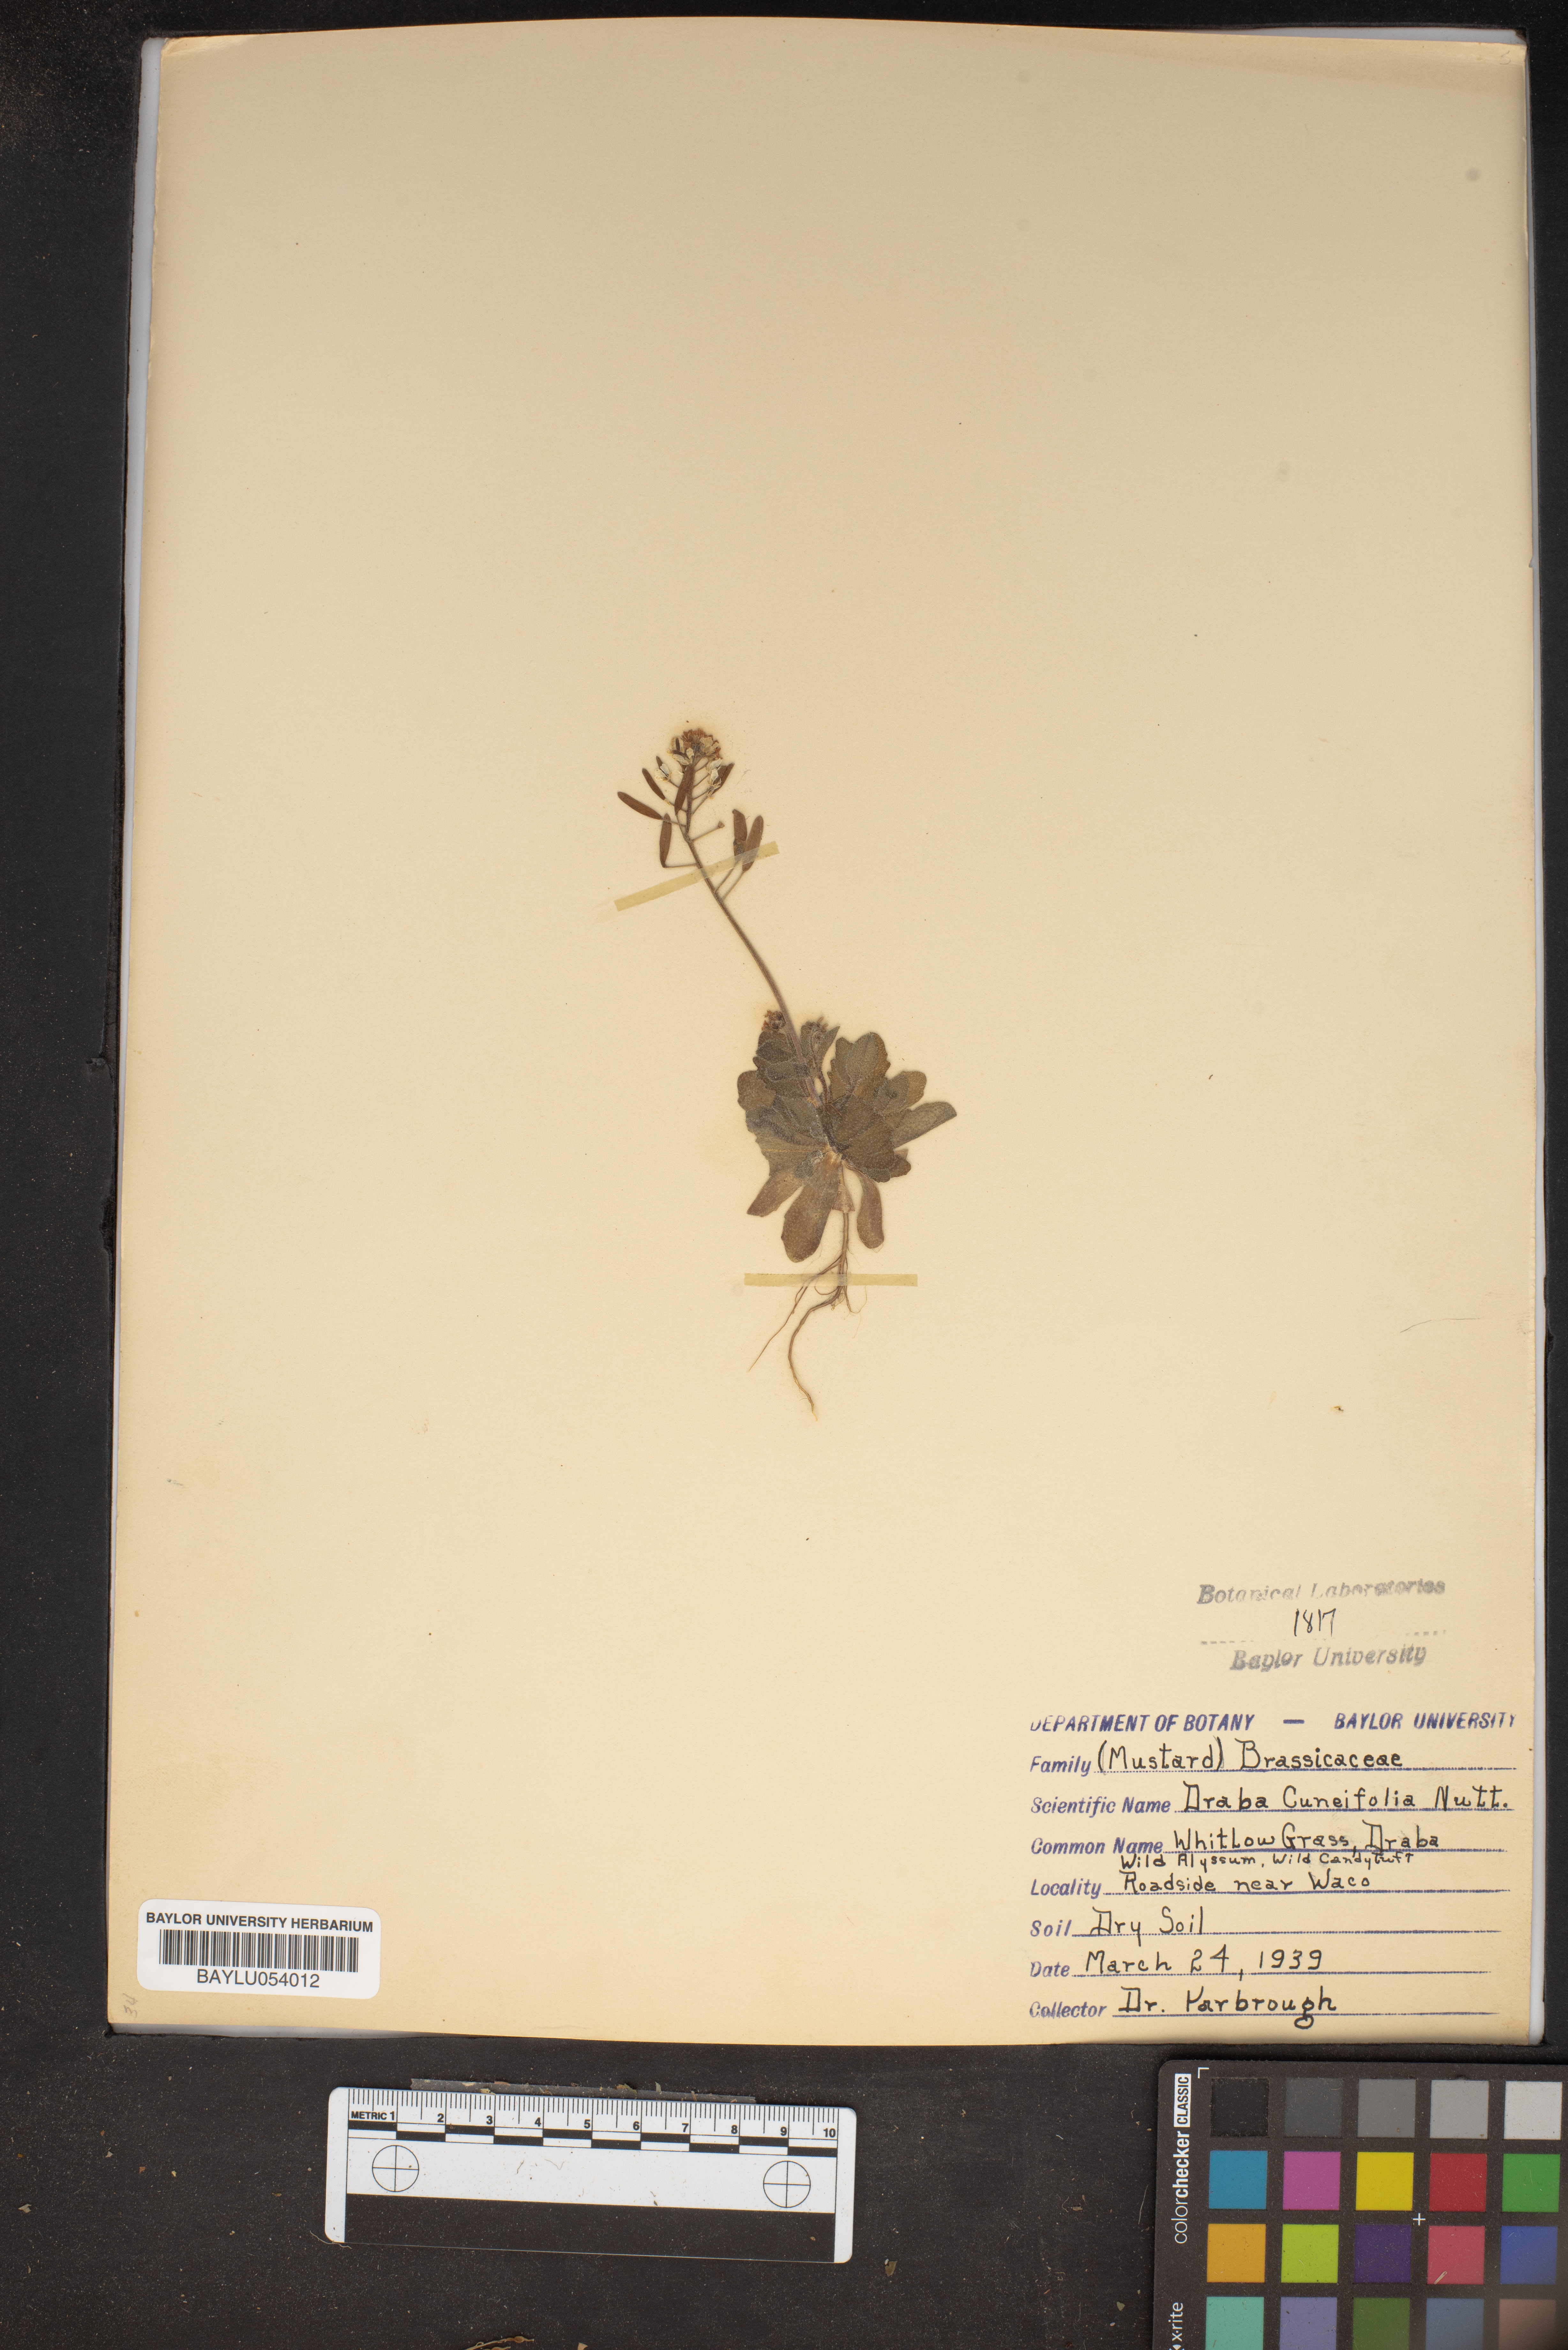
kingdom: Plantae
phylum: Tracheophyta
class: Magnoliopsida
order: Brassicales
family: Brassicaceae
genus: Tomostima
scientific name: Tomostima cuneifolia
